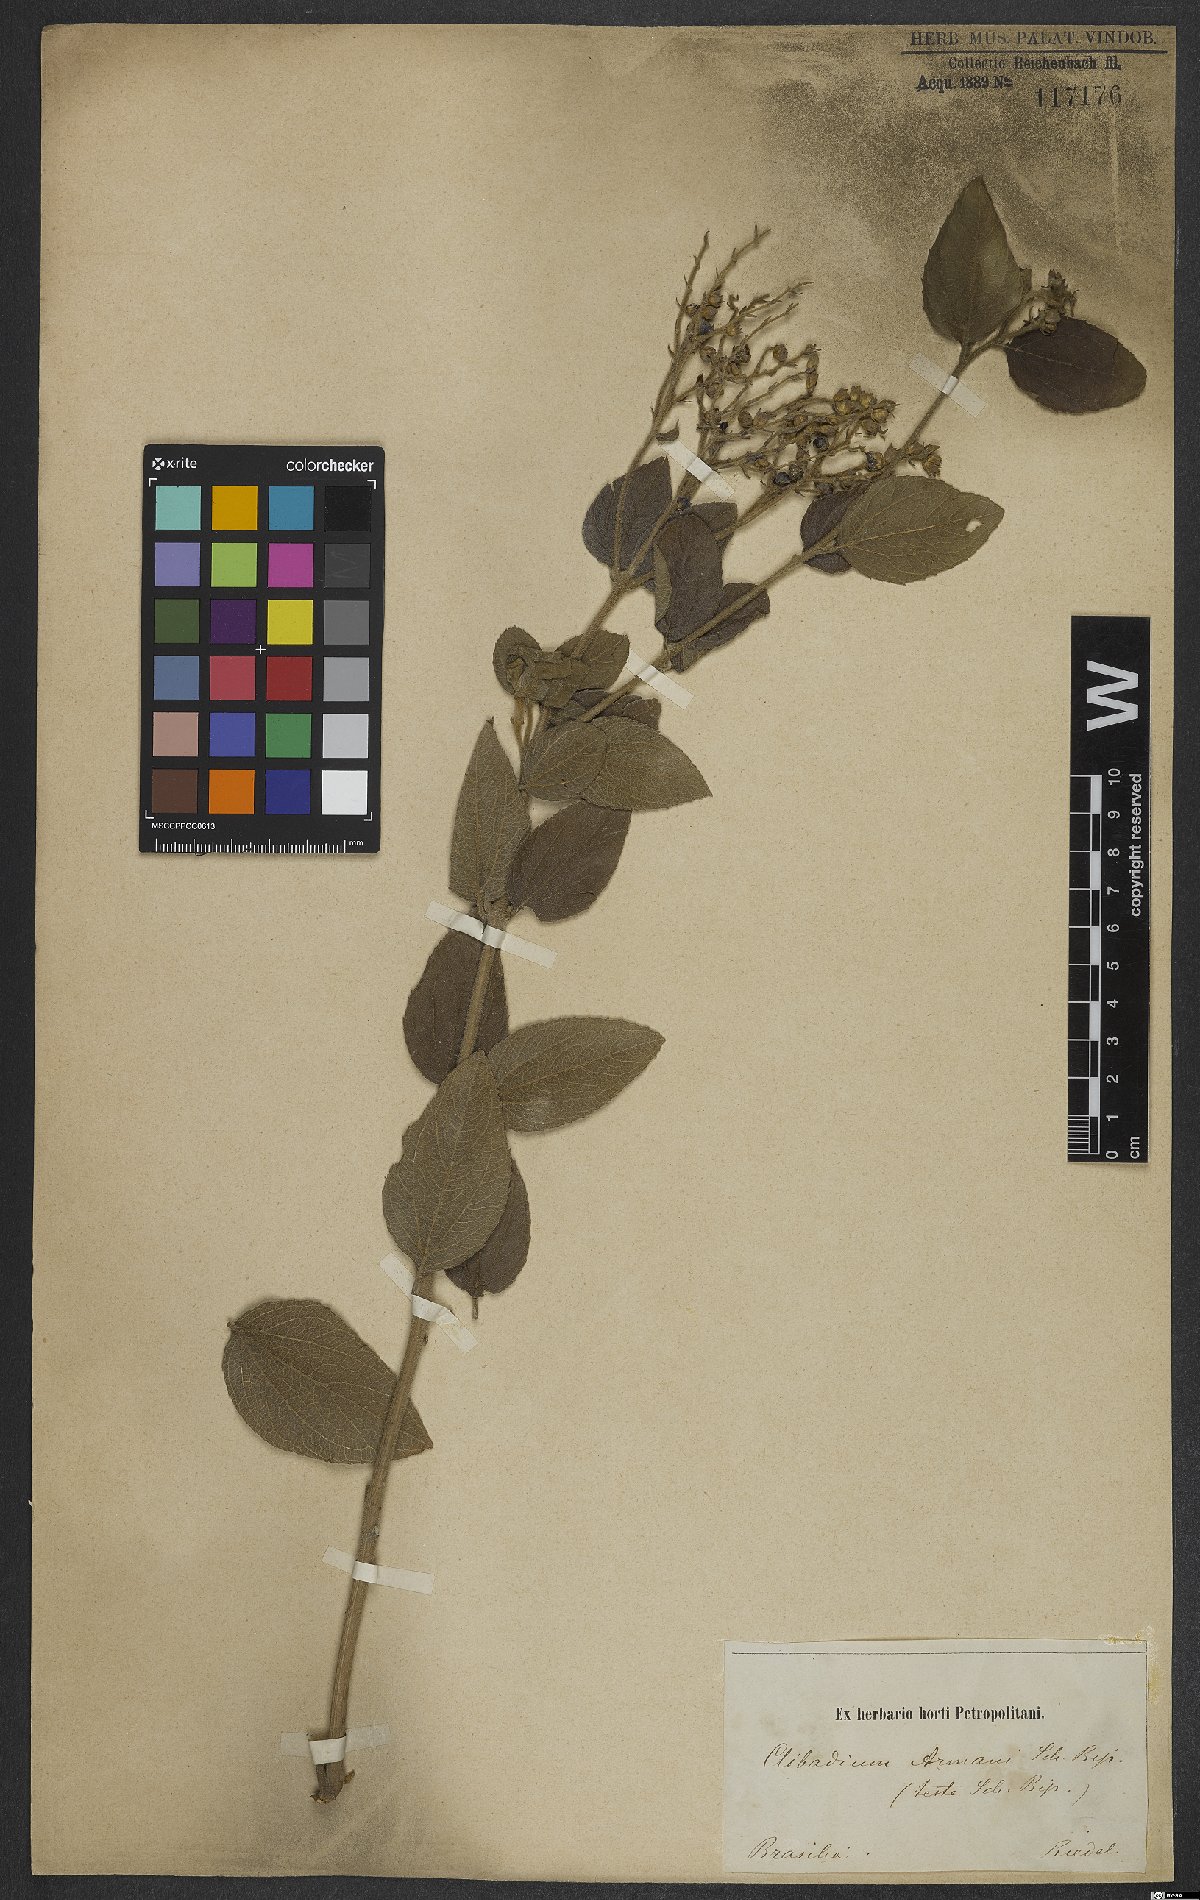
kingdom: Plantae
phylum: Tracheophyta
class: Magnoliopsida
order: Asterales
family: Asteraceae
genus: Clibadium
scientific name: Clibadium armanii
